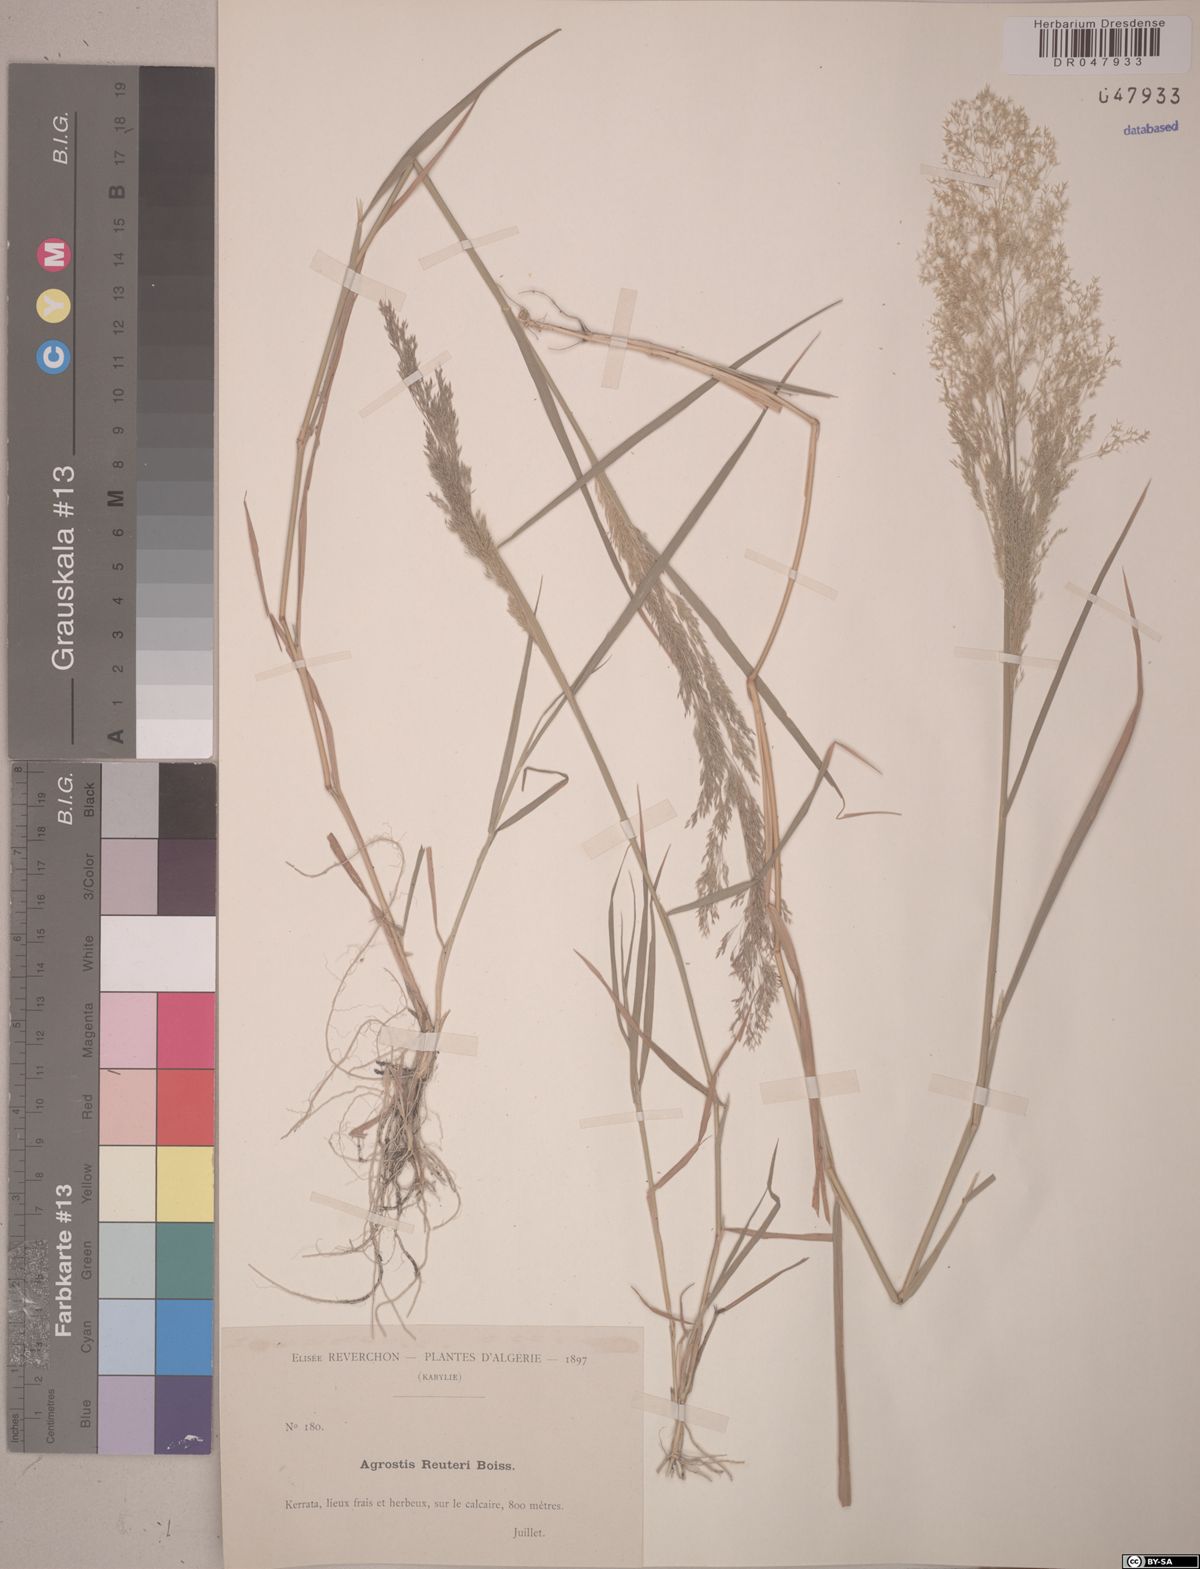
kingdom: Plantae
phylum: Tracheophyta
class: Liliopsida
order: Poales
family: Poaceae
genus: Agrostis
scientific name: Agrostis reuteri
